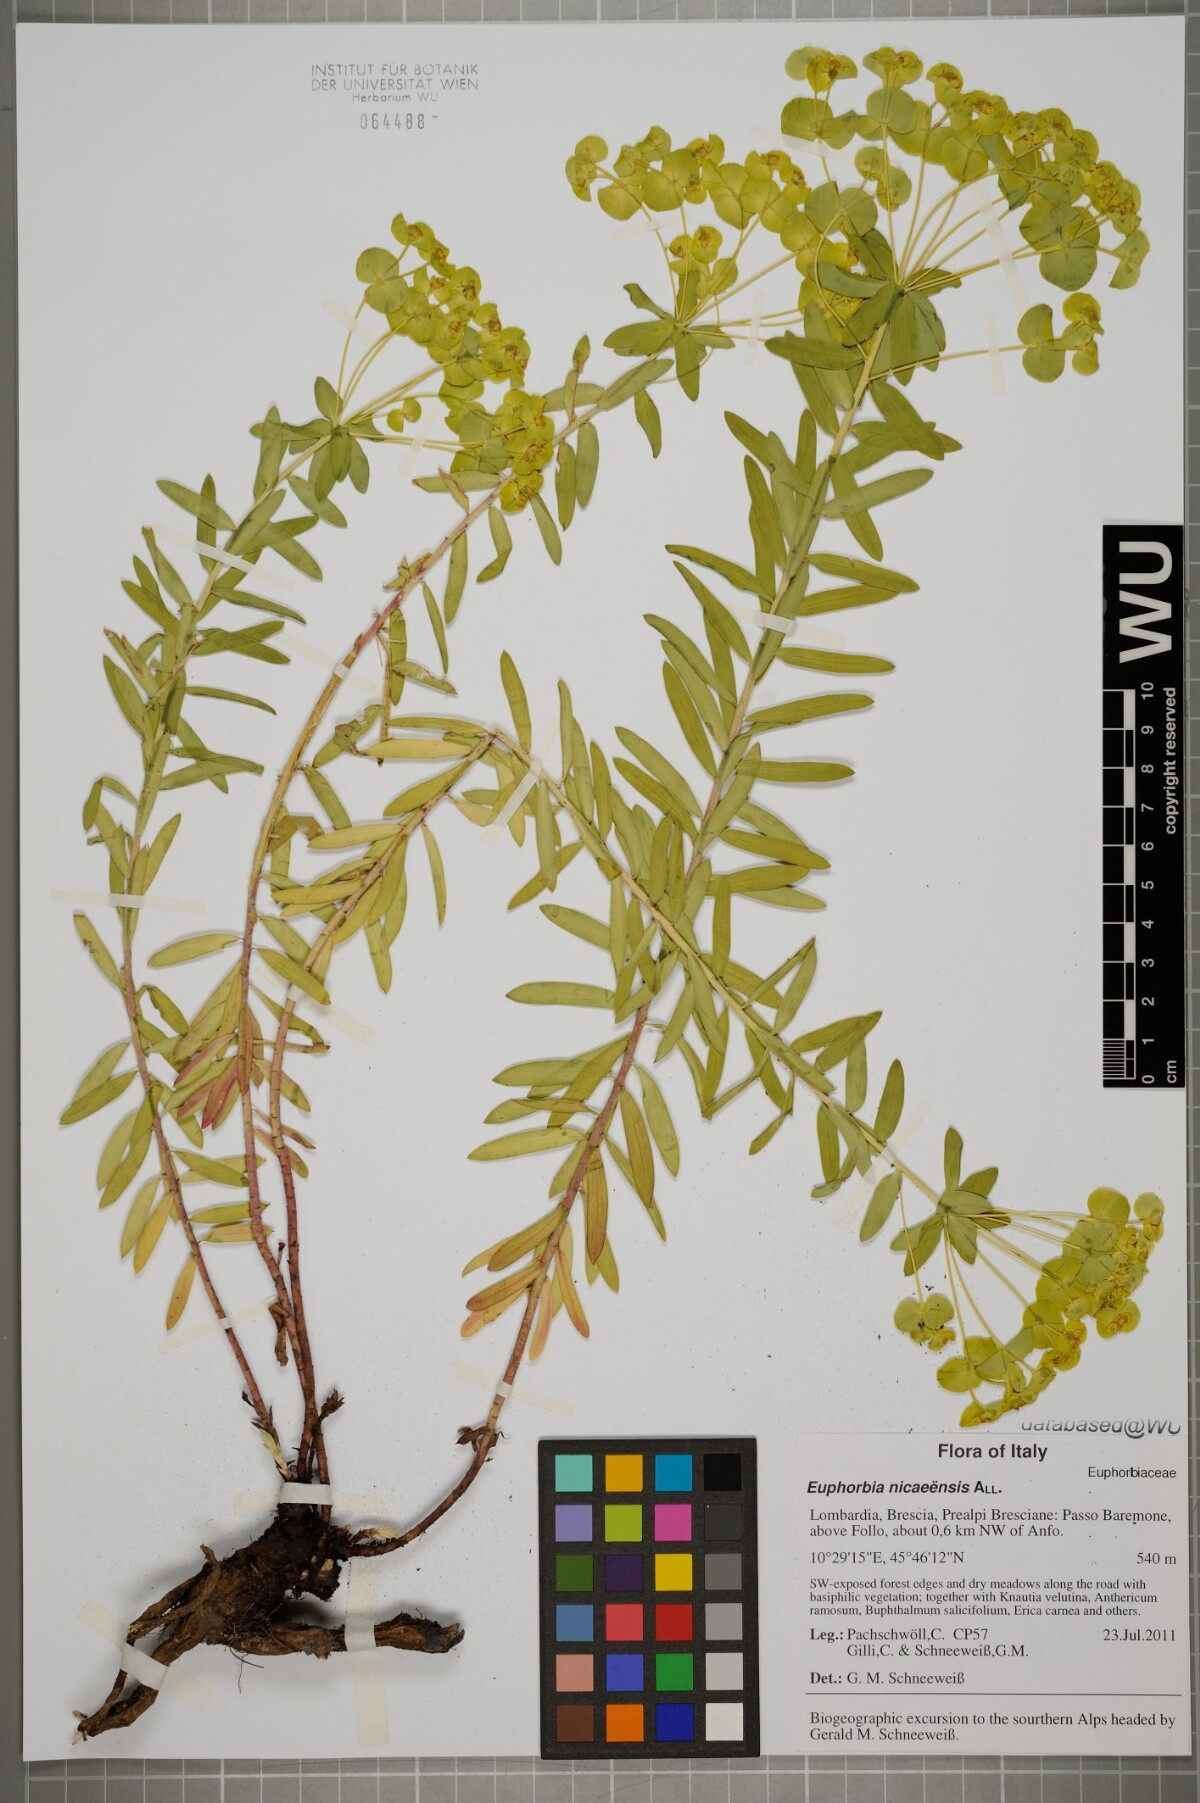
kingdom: Plantae
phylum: Tracheophyta
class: Magnoliopsida
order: Malpighiales
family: Euphorbiaceae
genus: Euphorbia
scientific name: Euphorbia nicaeensis
